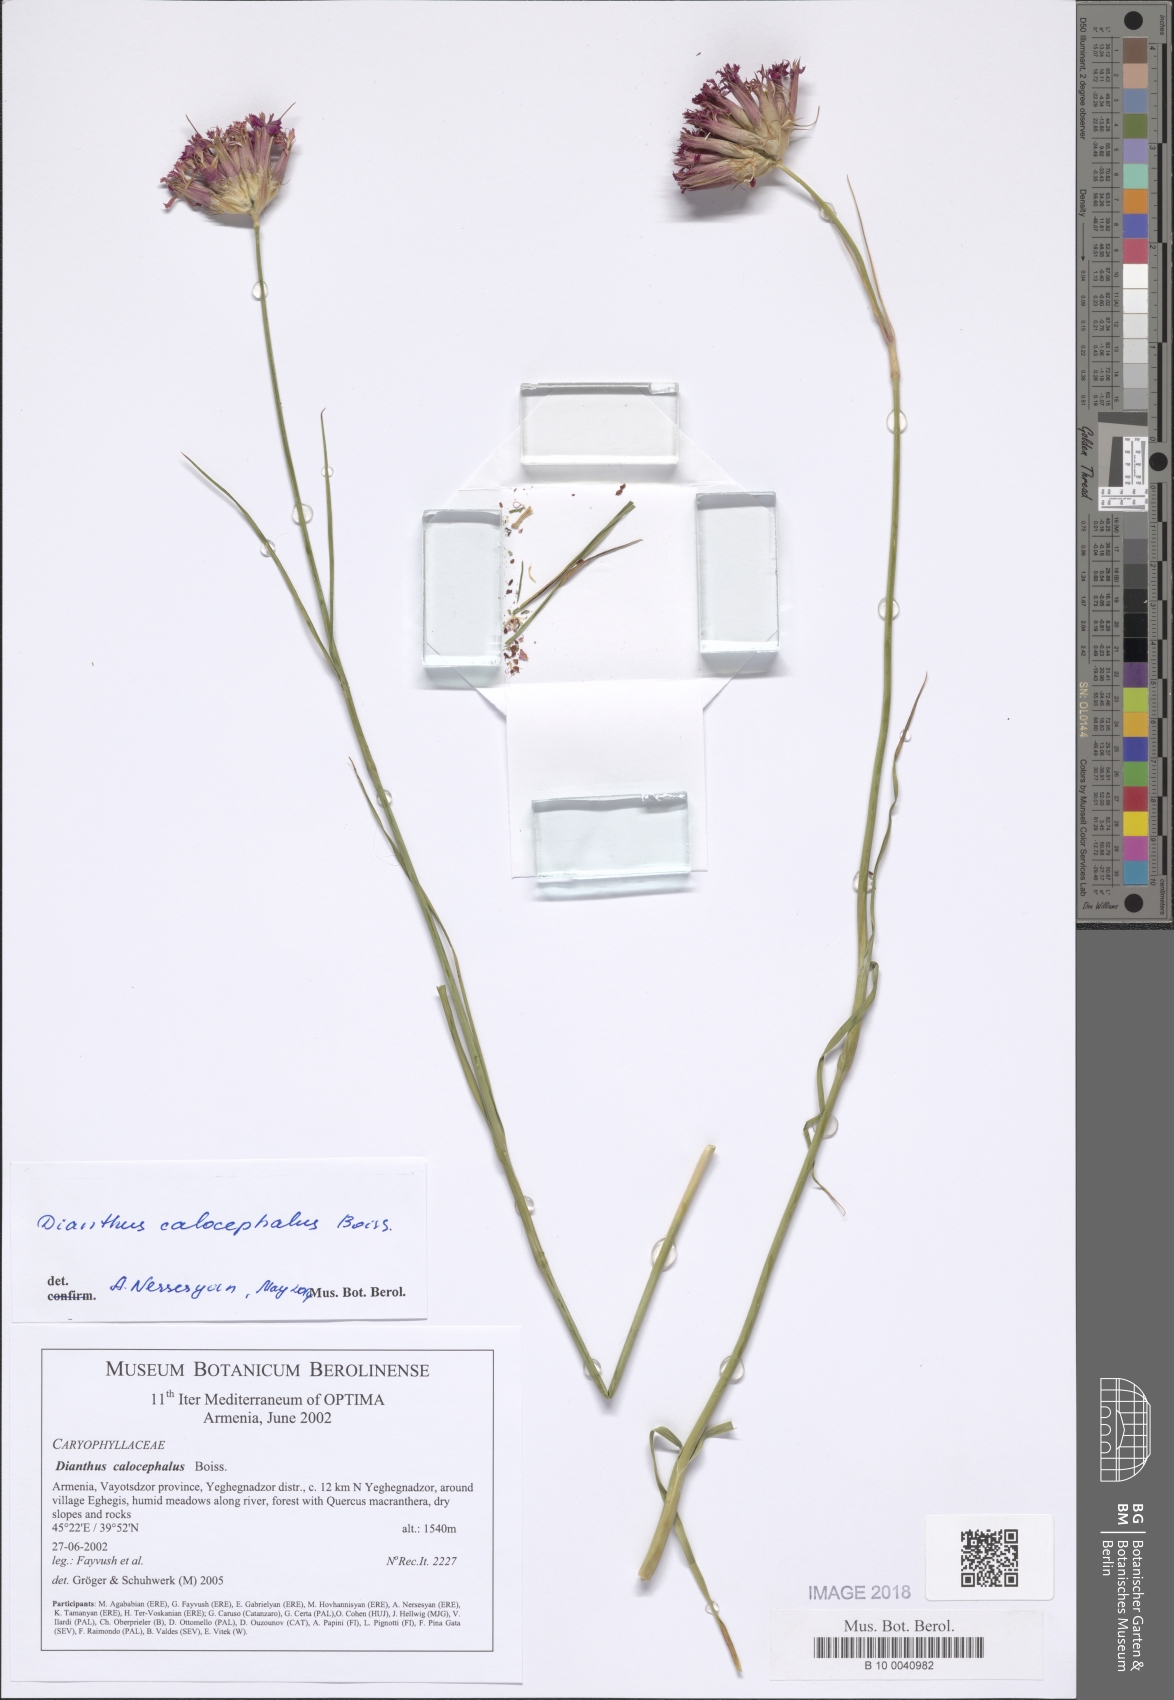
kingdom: Plantae
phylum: Tracheophyta
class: Magnoliopsida
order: Caryophyllales
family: Caryophyllaceae
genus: Dianthus
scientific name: Dianthus cruentus
